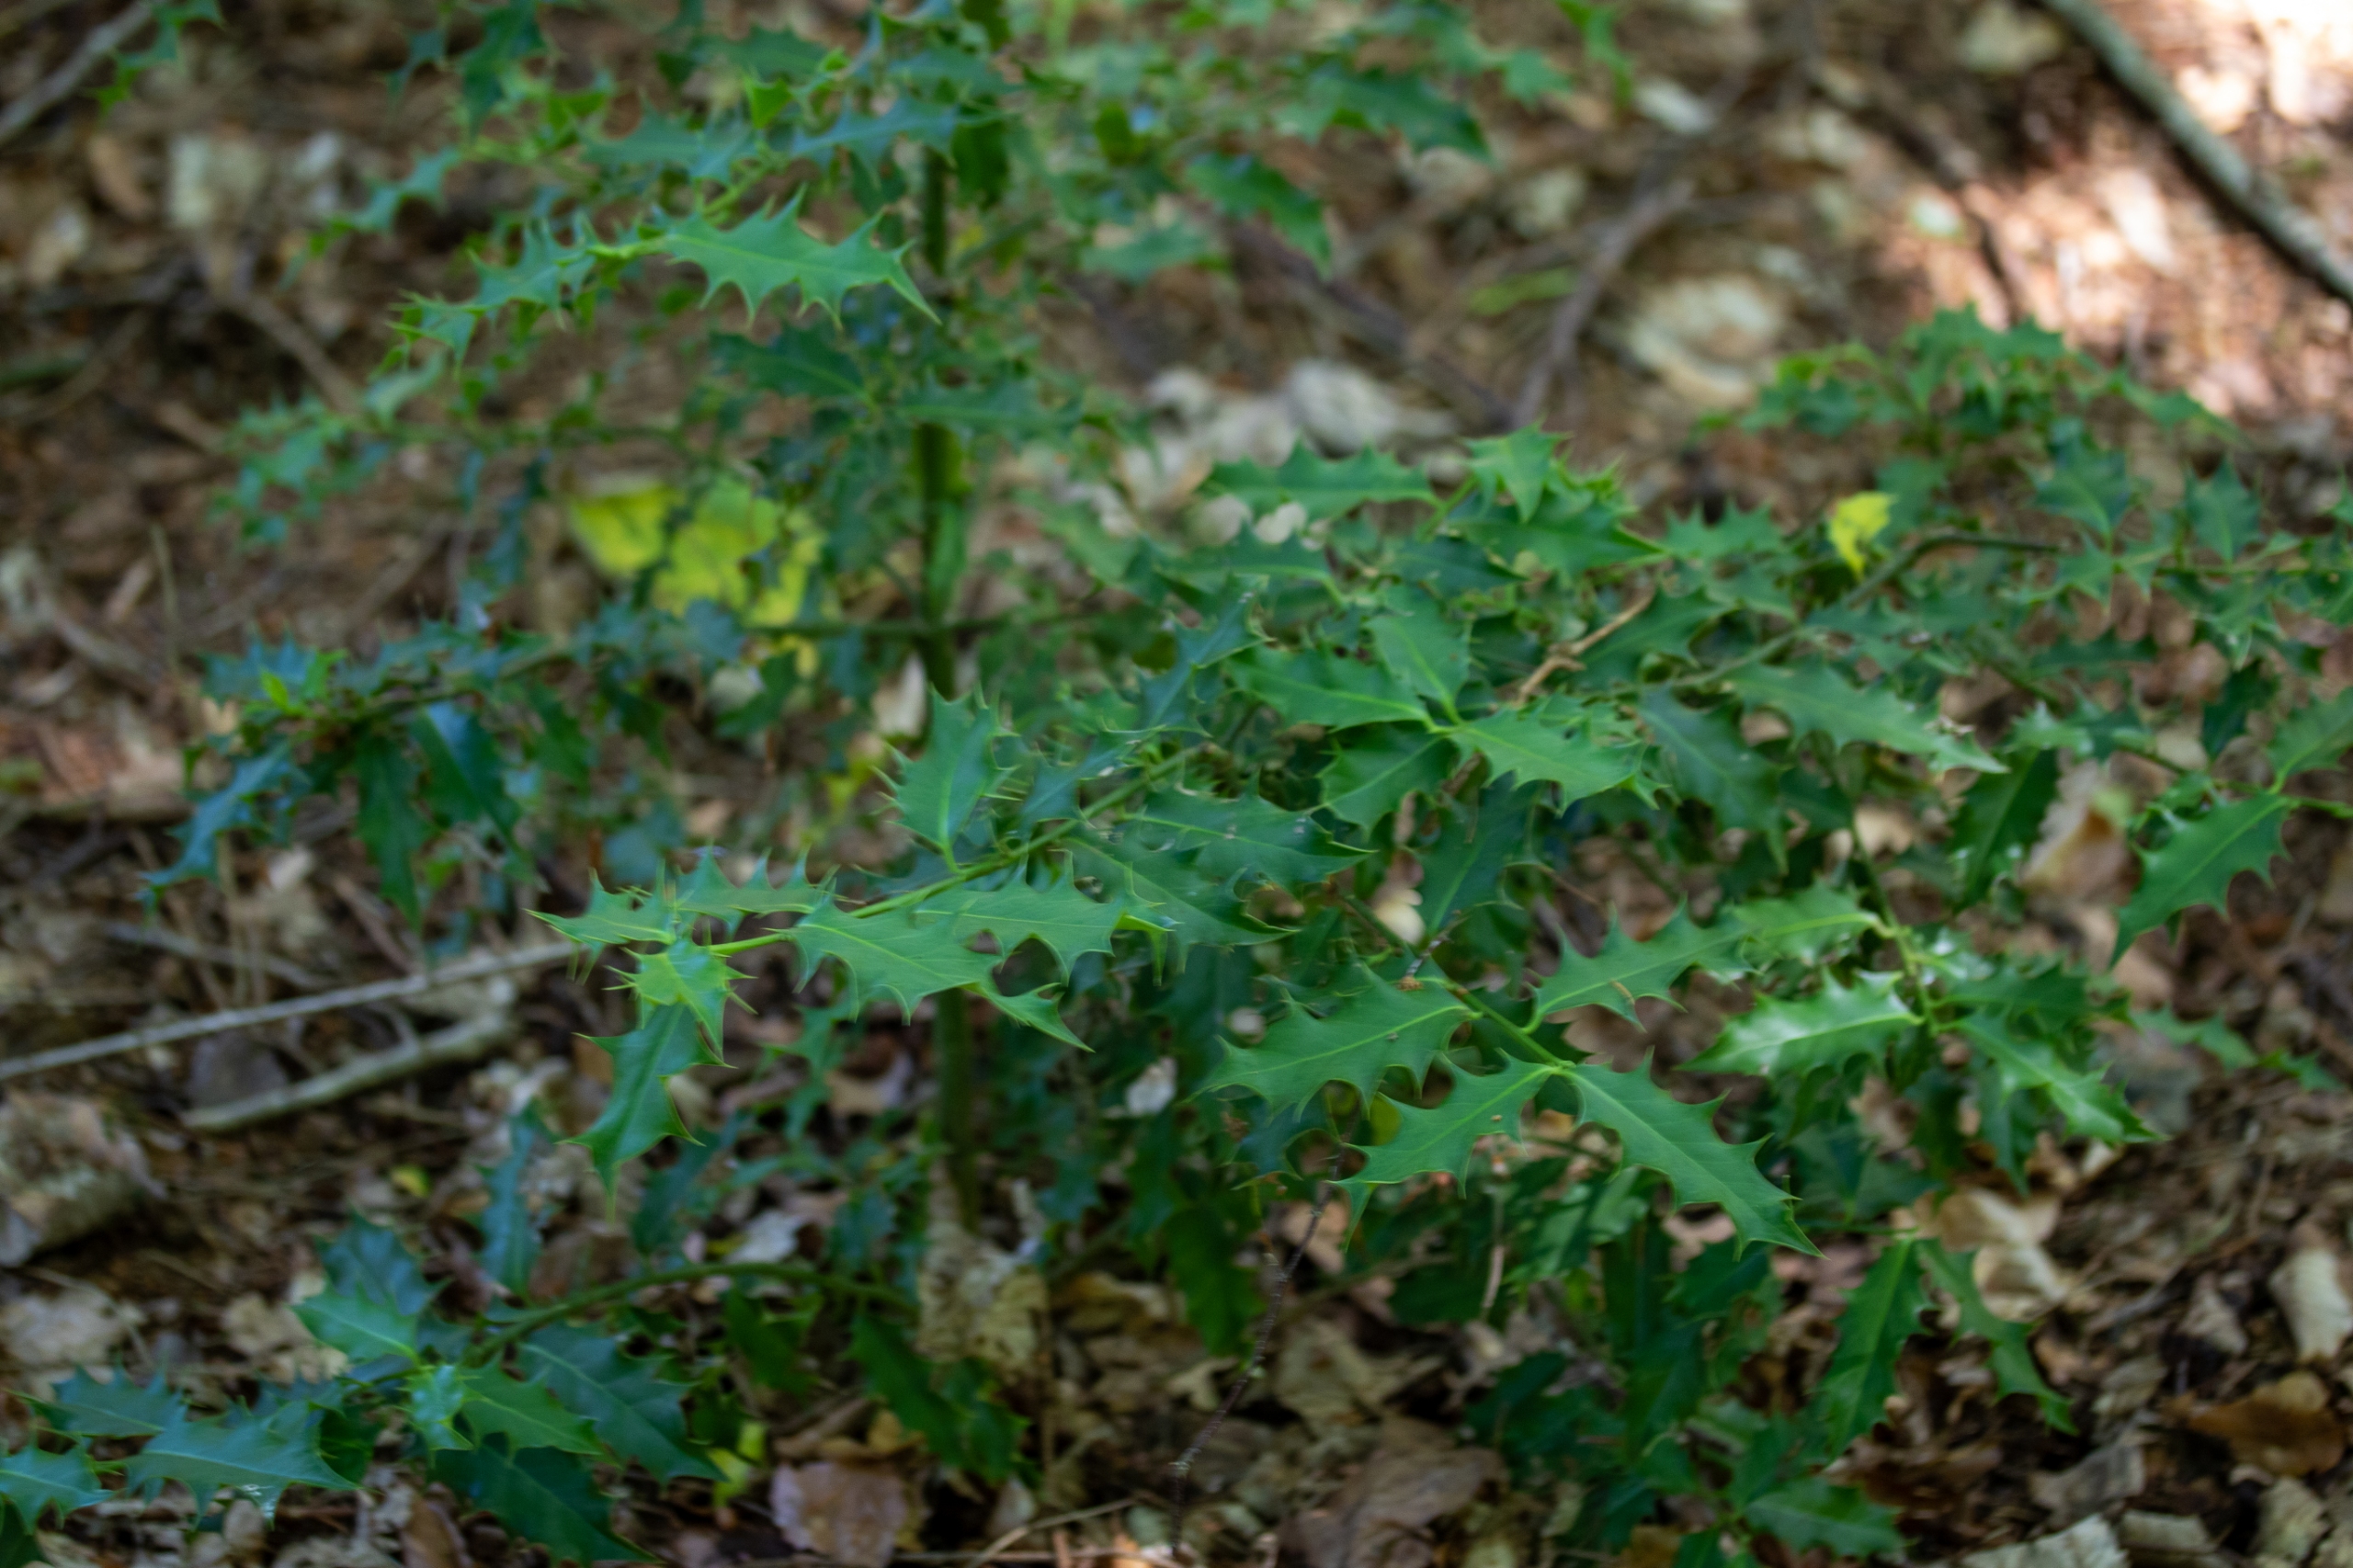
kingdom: Plantae
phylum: Tracheophyta
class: Magnoliopsida
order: Aquifoliales
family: Aquifoliaceae
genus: Ilex
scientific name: Ilex aquifolium
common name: Kristtorn
